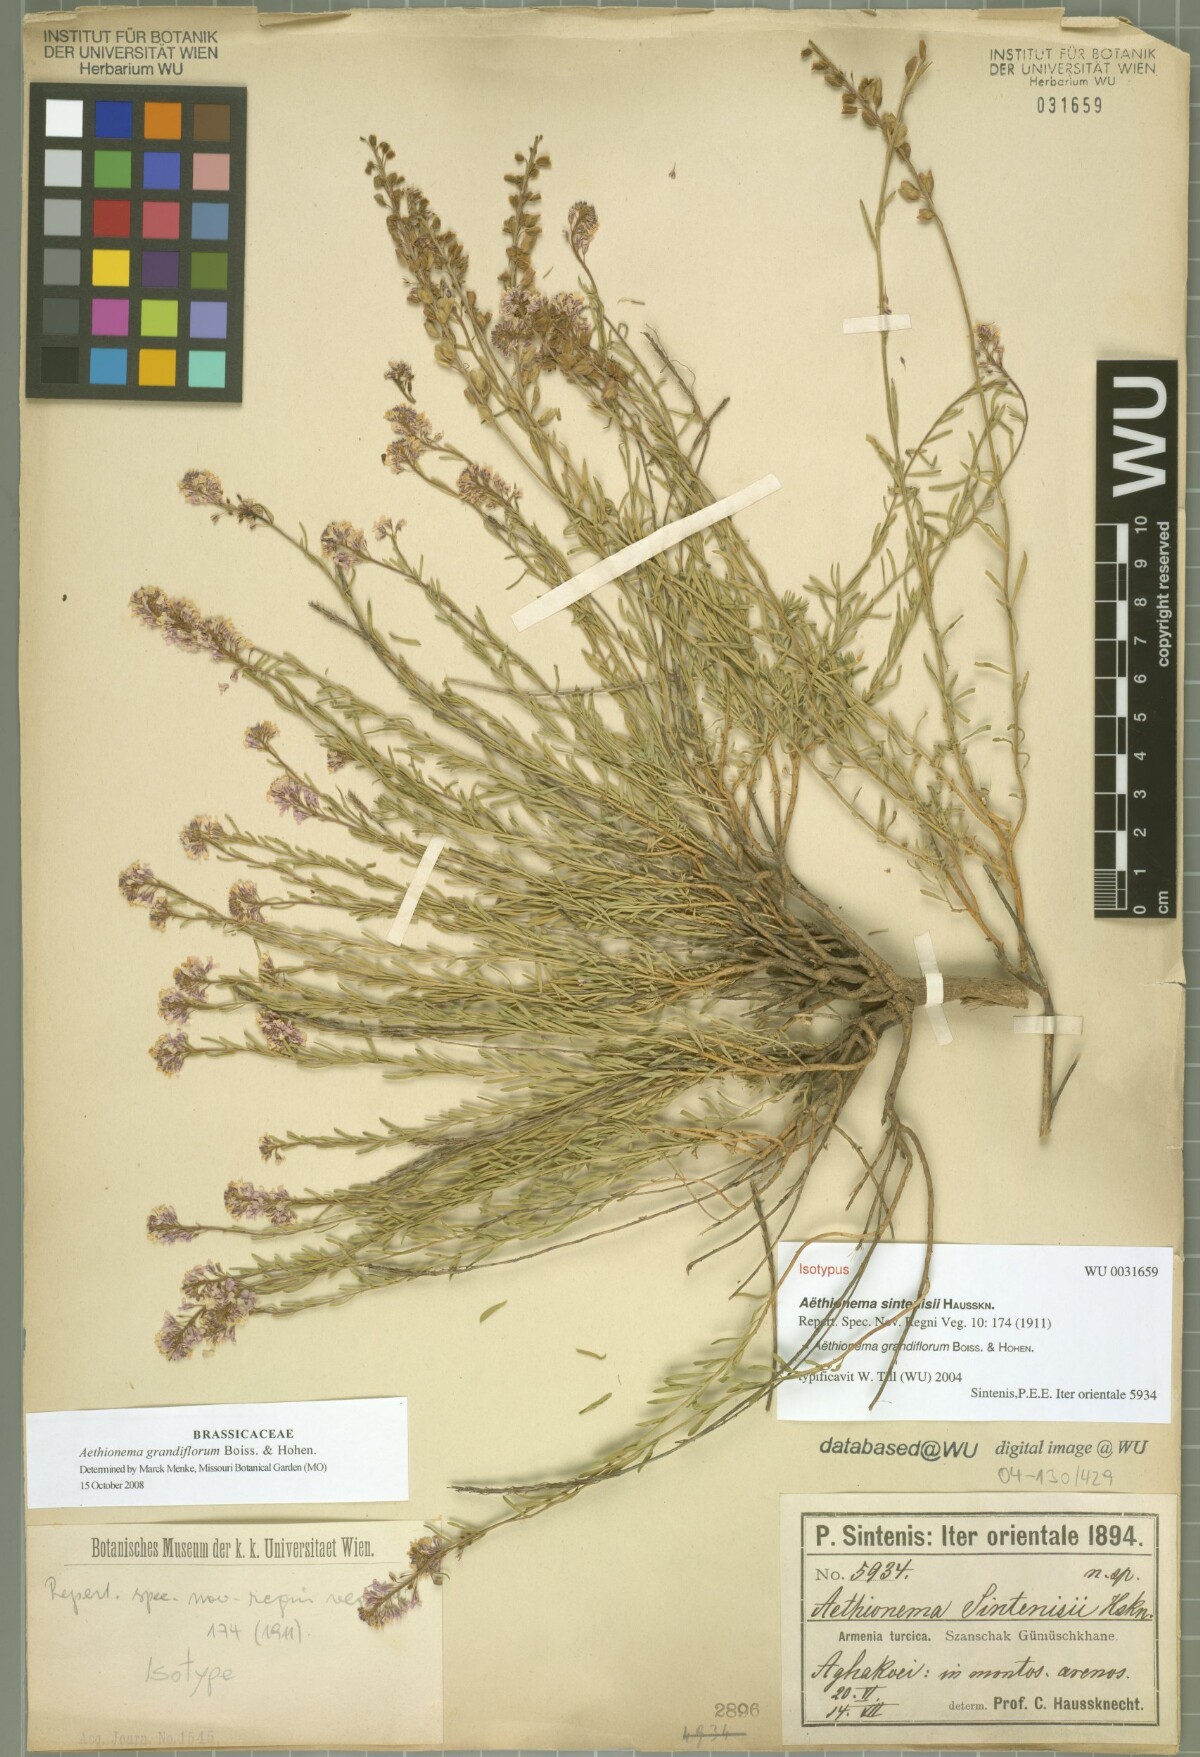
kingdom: Plantae
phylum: Tracheophyta
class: Magnoliopsida
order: Brassicales
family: Brassicaceae
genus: Aethionema
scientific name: Aethionema grandiflorum
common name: Persian stonecress
